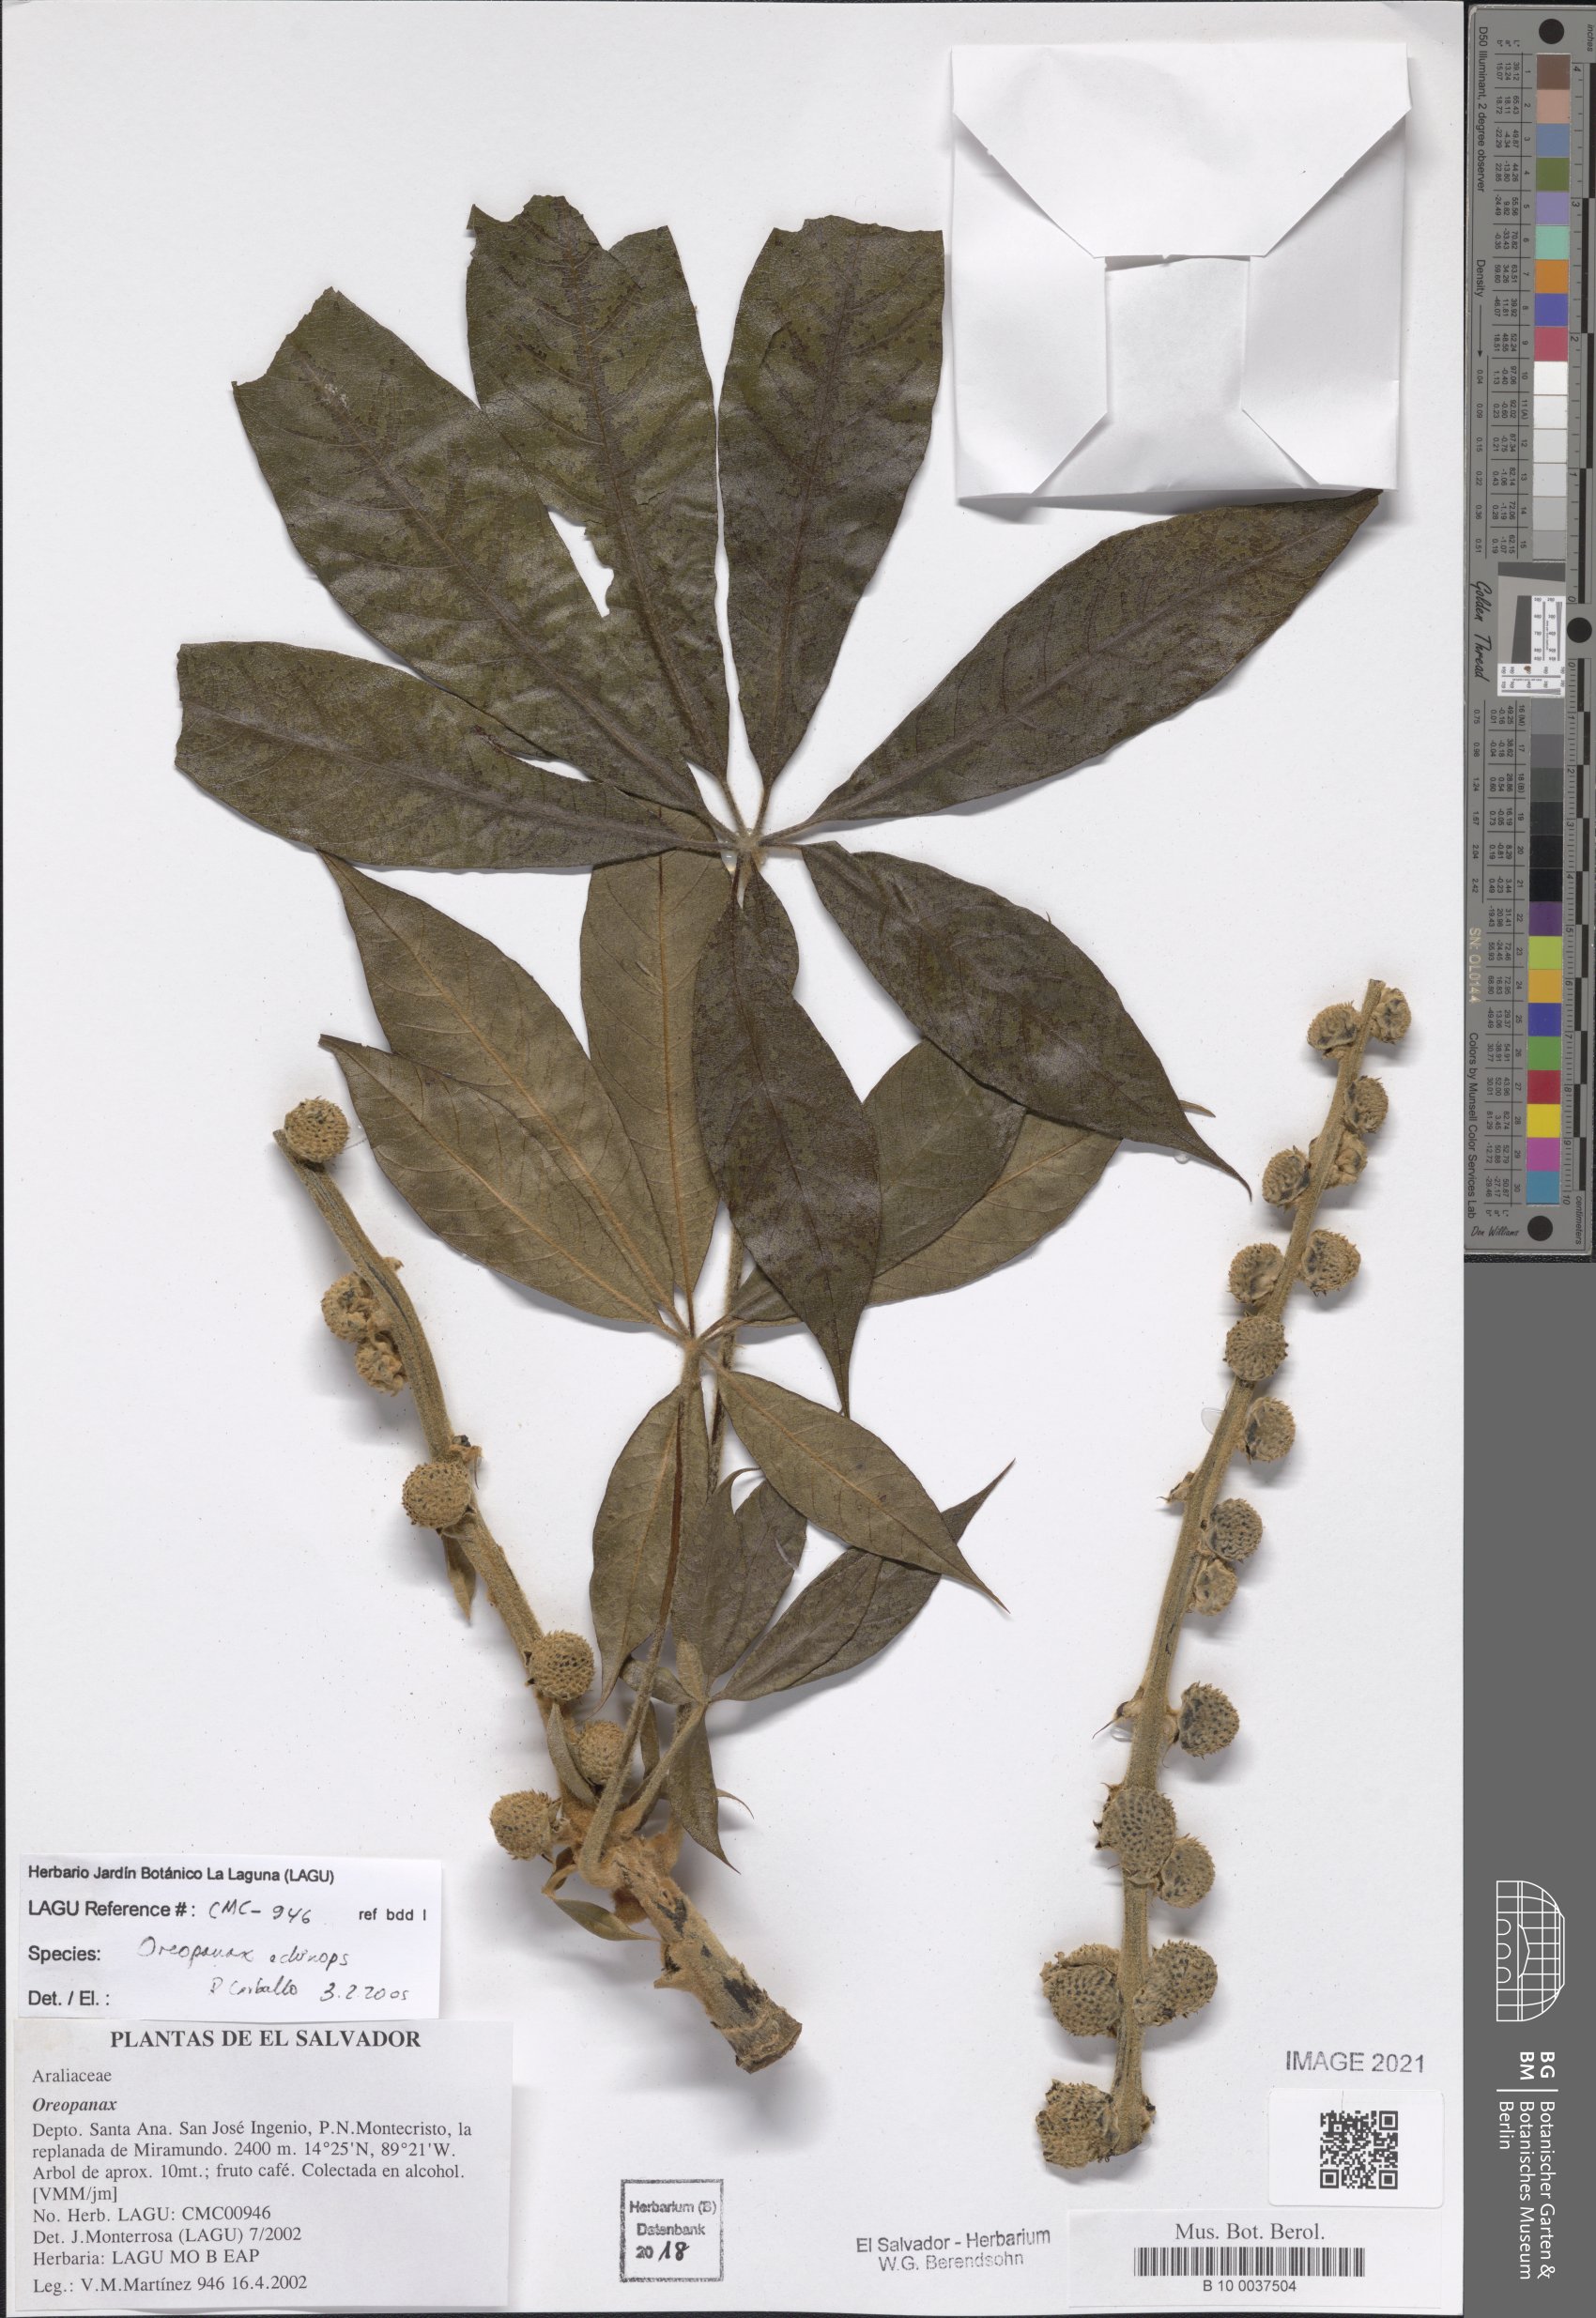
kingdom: Plantae
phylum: Tracheophyta
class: Magnoliopsida
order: Apiales
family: Araliaceae
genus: Oreopanax
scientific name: Oreopanax echinops
